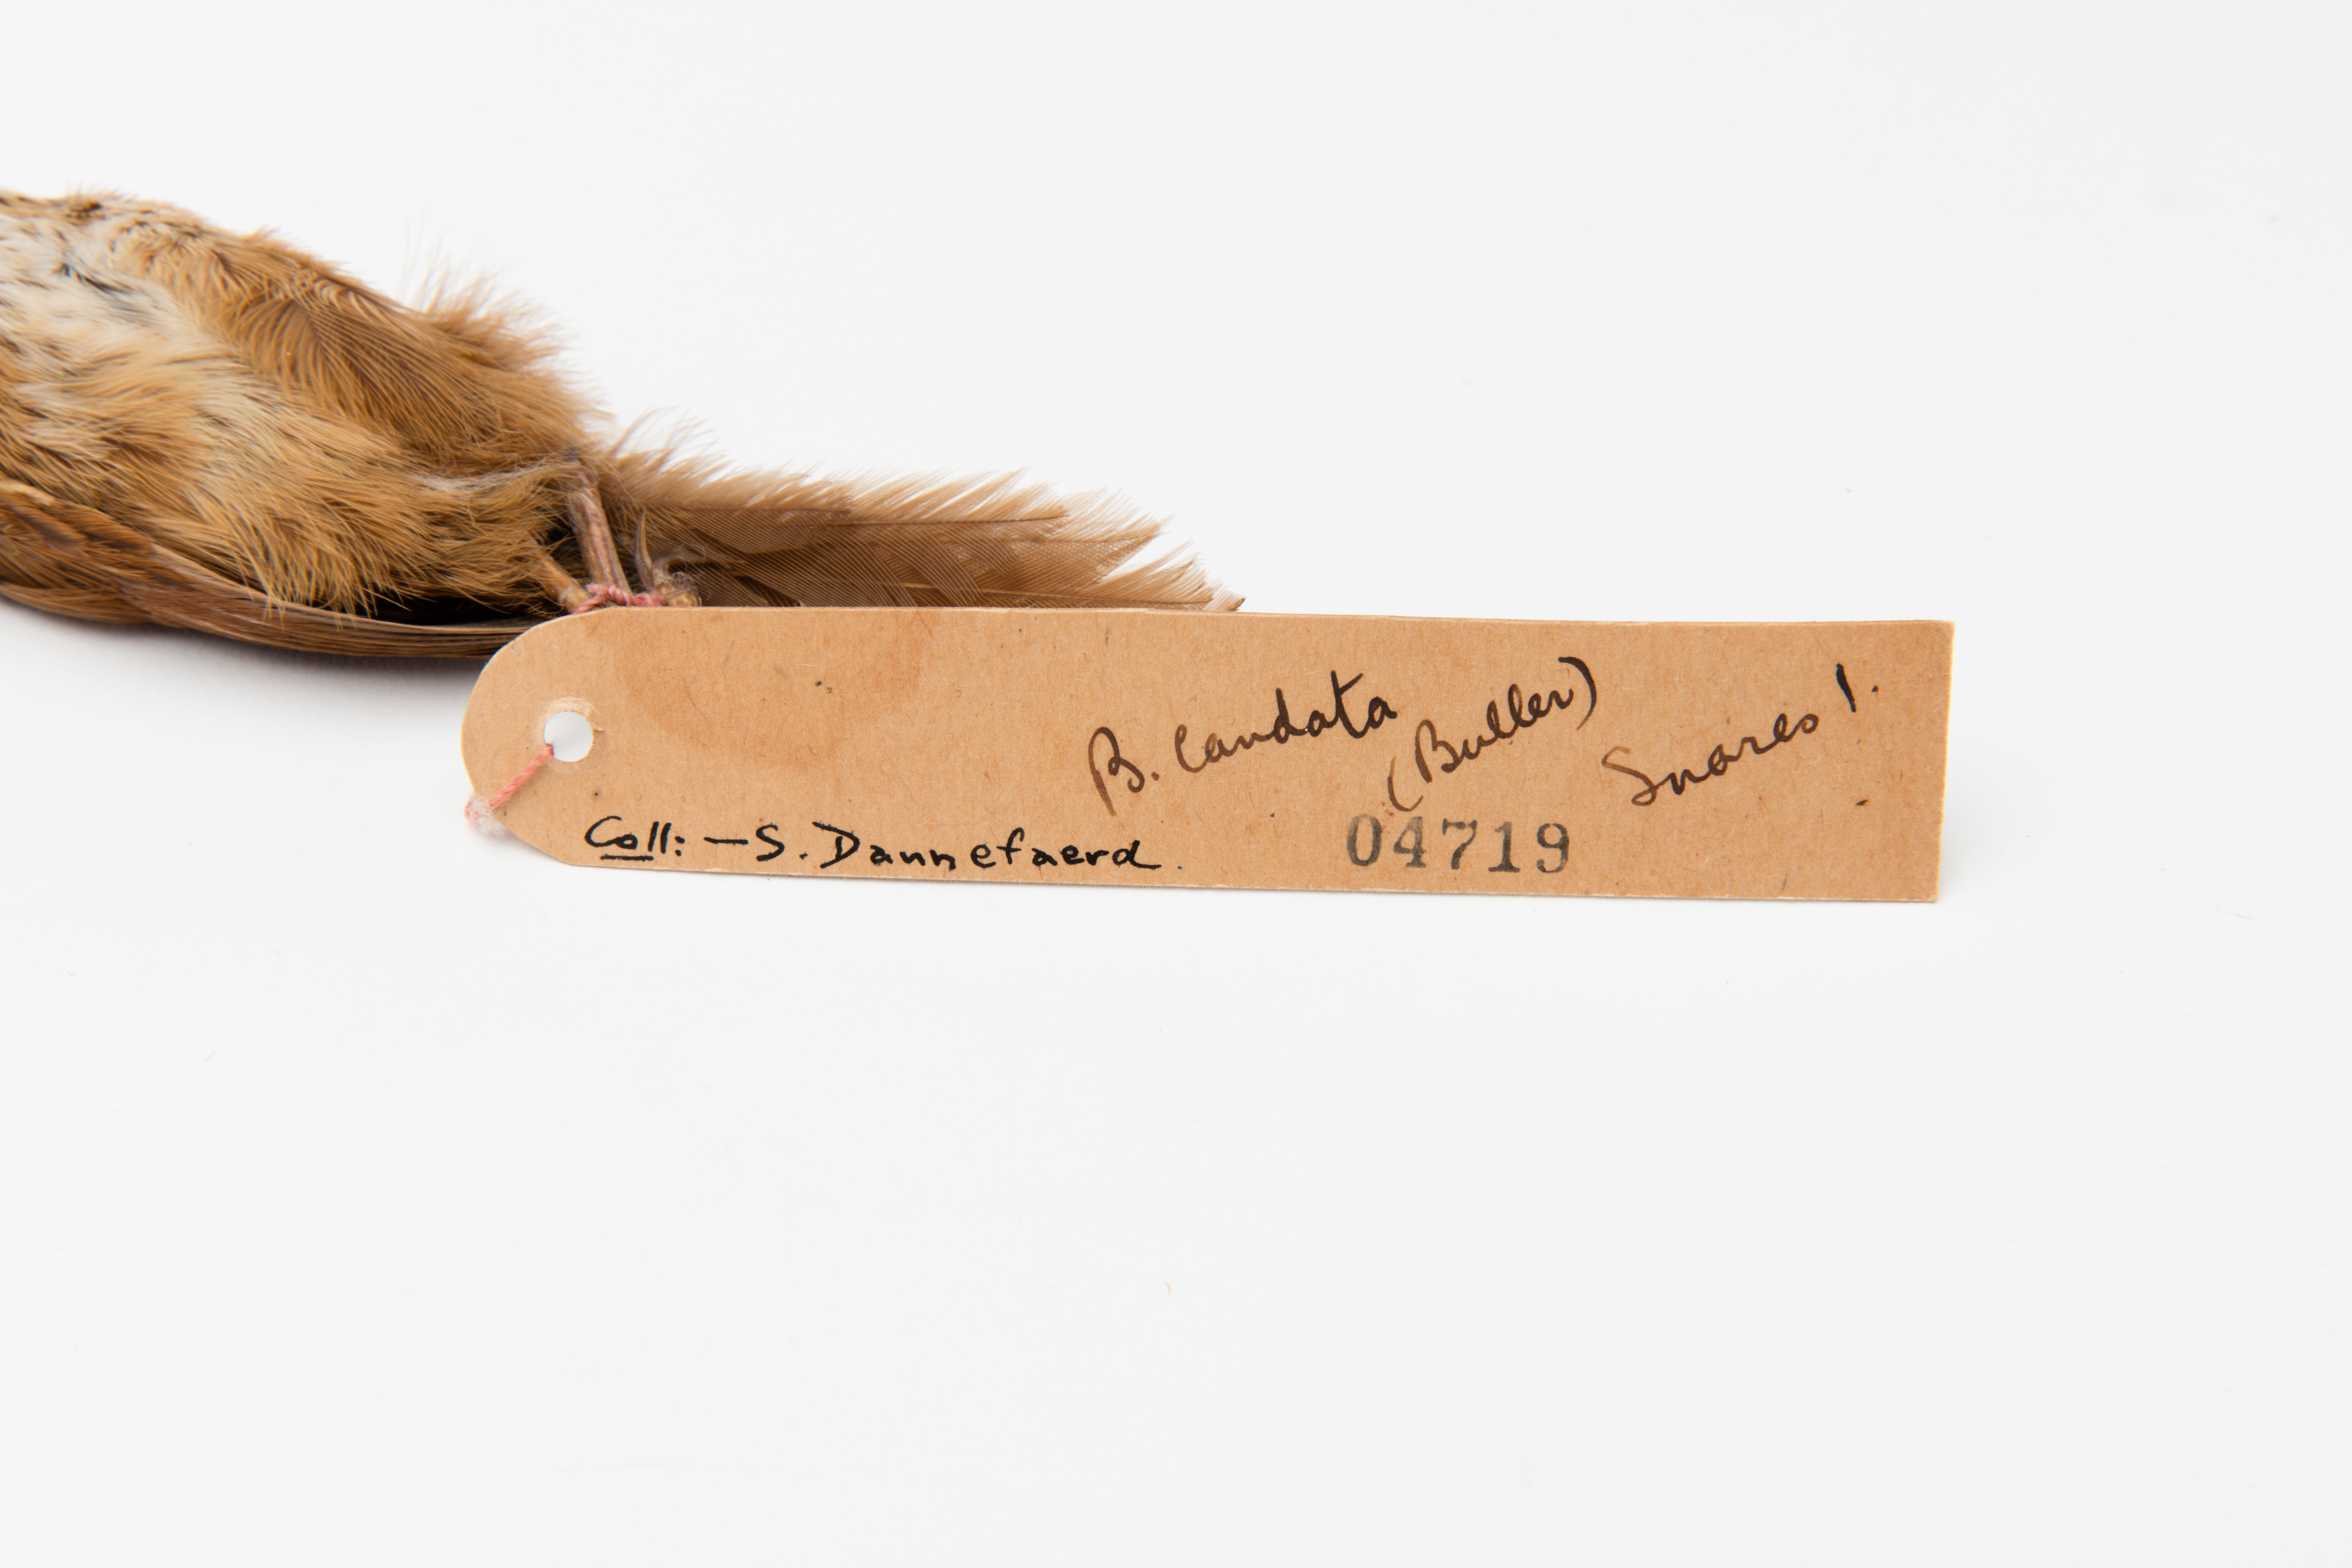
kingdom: Animalia
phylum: Chordata
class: Aves
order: Passeriformes
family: Locustellidae
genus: Megalurus
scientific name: Megalurus punctatus
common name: New zealand fernbird
